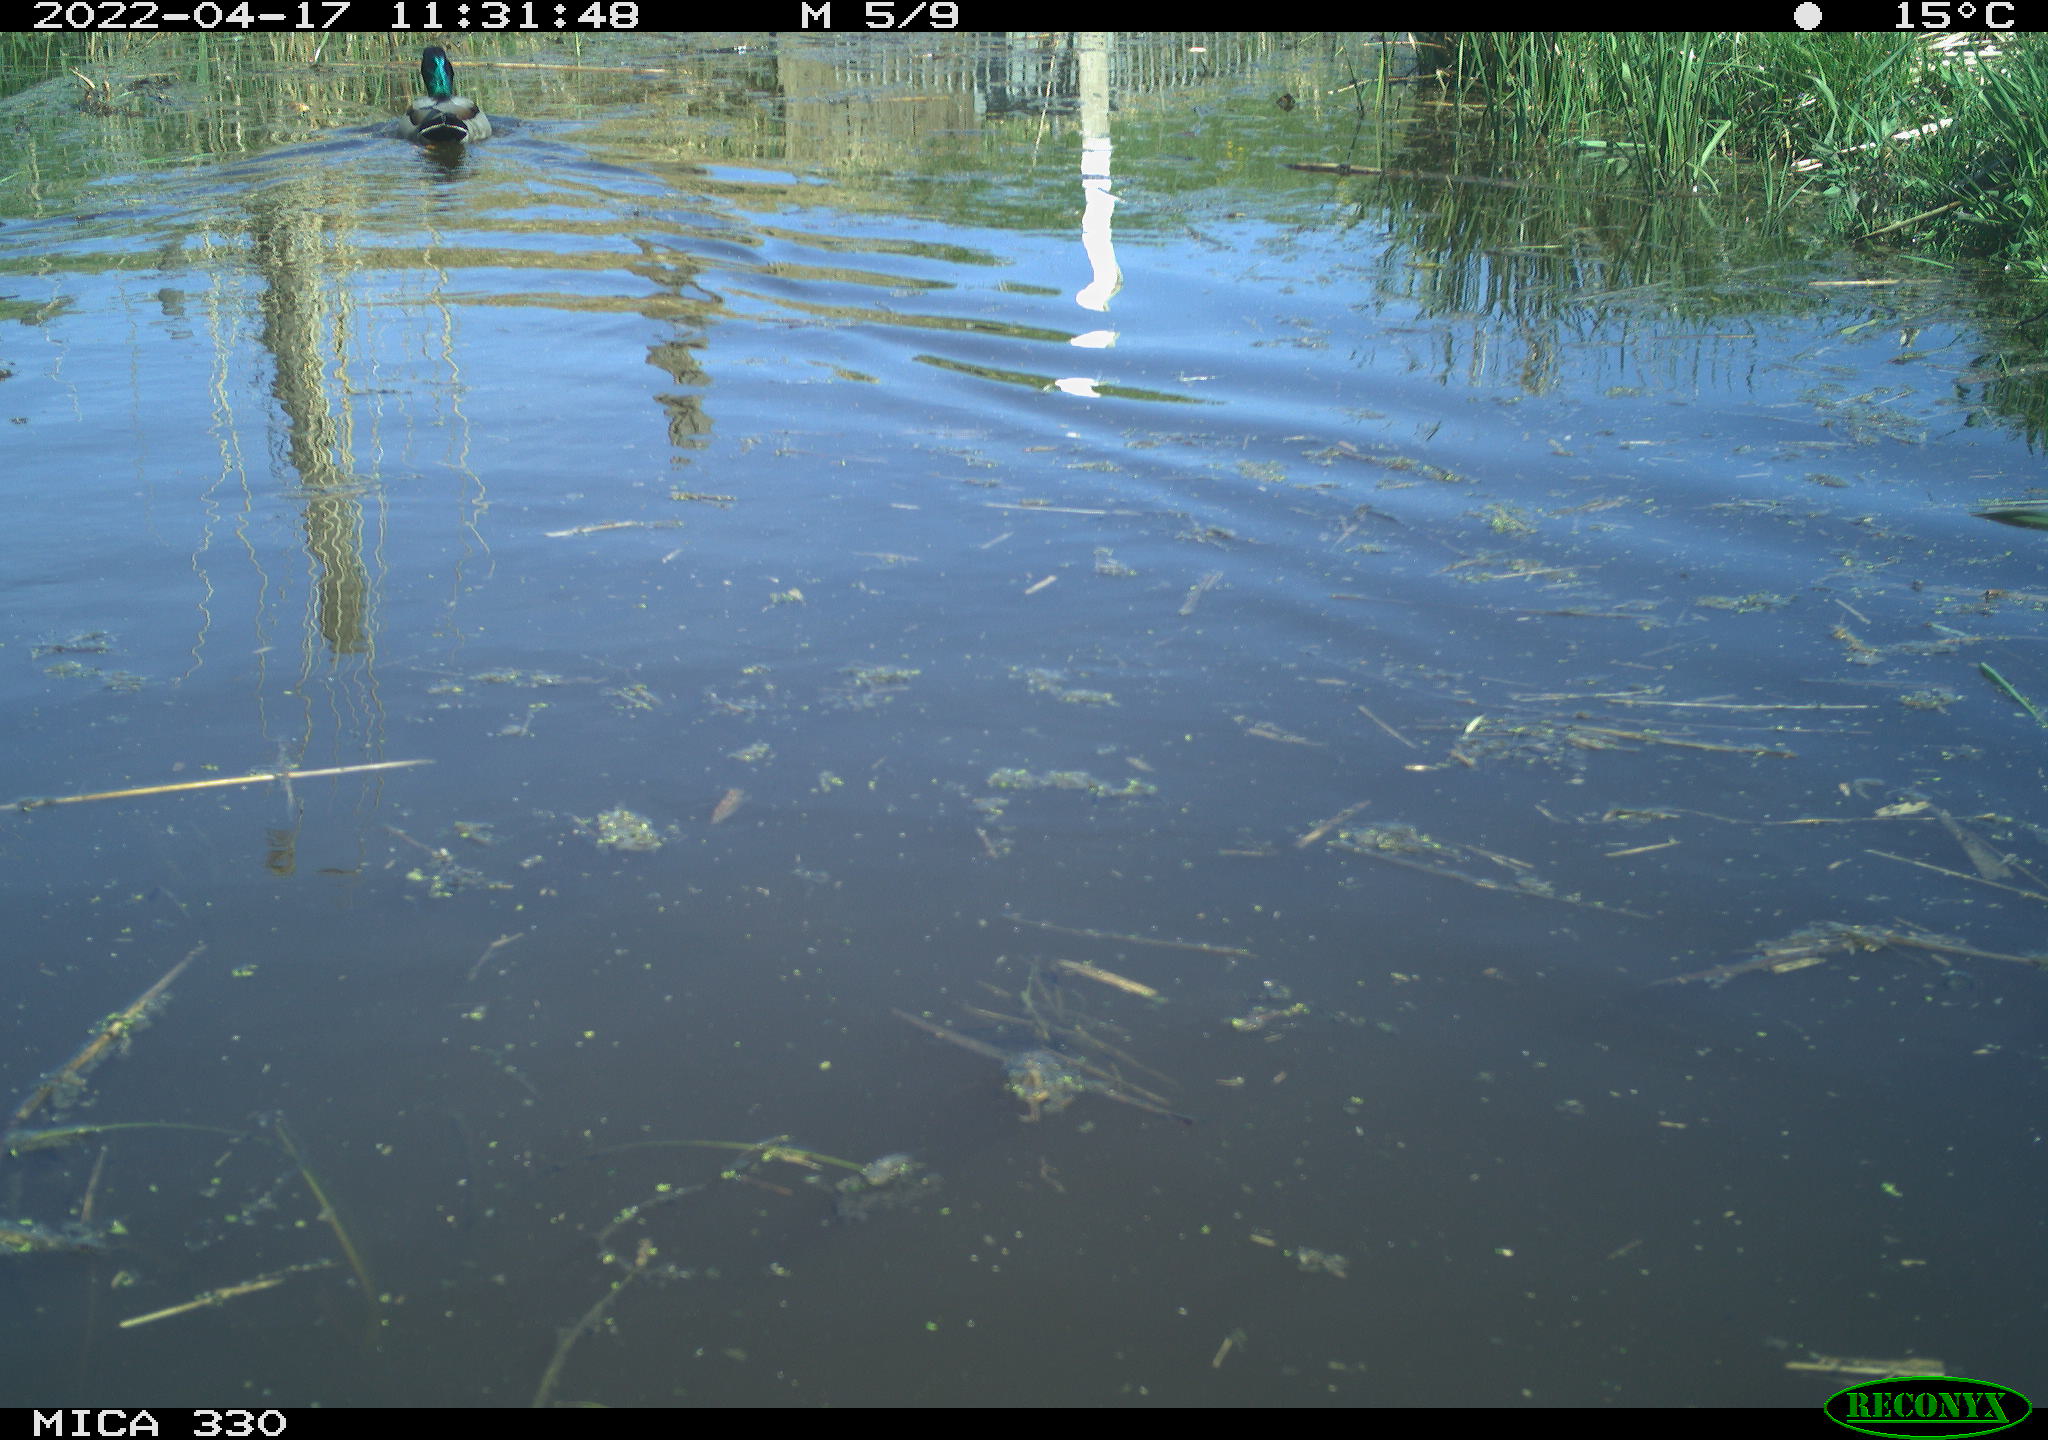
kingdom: Animalia
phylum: Chordata
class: Aves
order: Anseriformes
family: Anatidae
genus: Anas
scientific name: Anas platyrhynchos
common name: Mallard
